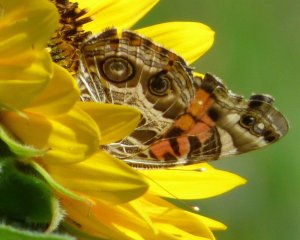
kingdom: Animalia
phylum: Arthropoda
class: Insecta
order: Lepidoptera
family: Nymphalidae
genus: Vanessa
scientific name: Vanessa virginiensis
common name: American Lady
